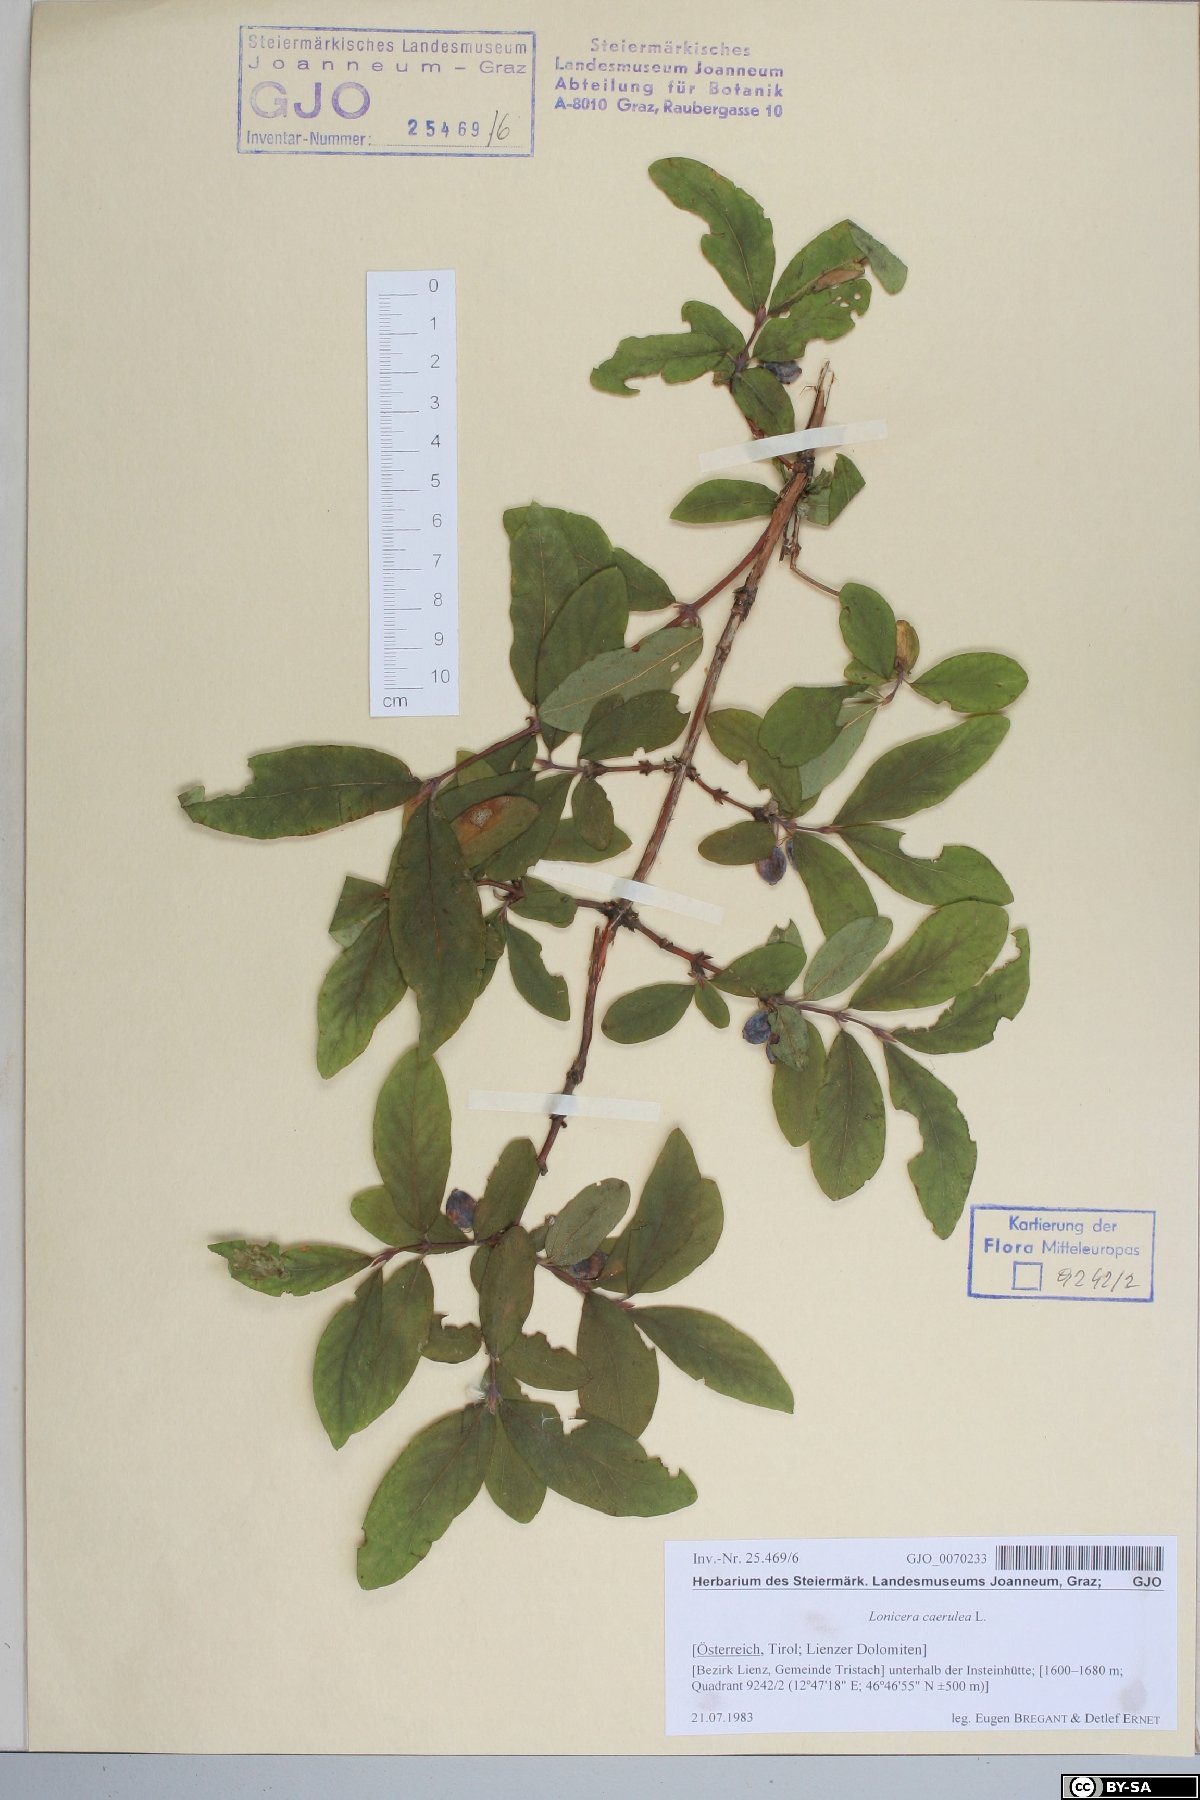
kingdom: Plantae
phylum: Tracheophyta
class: Magnoliopsida
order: Dipsacales
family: Caprifoliaceae
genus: Lonicera
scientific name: Lonicera caerulea
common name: Blue honeysuckle
